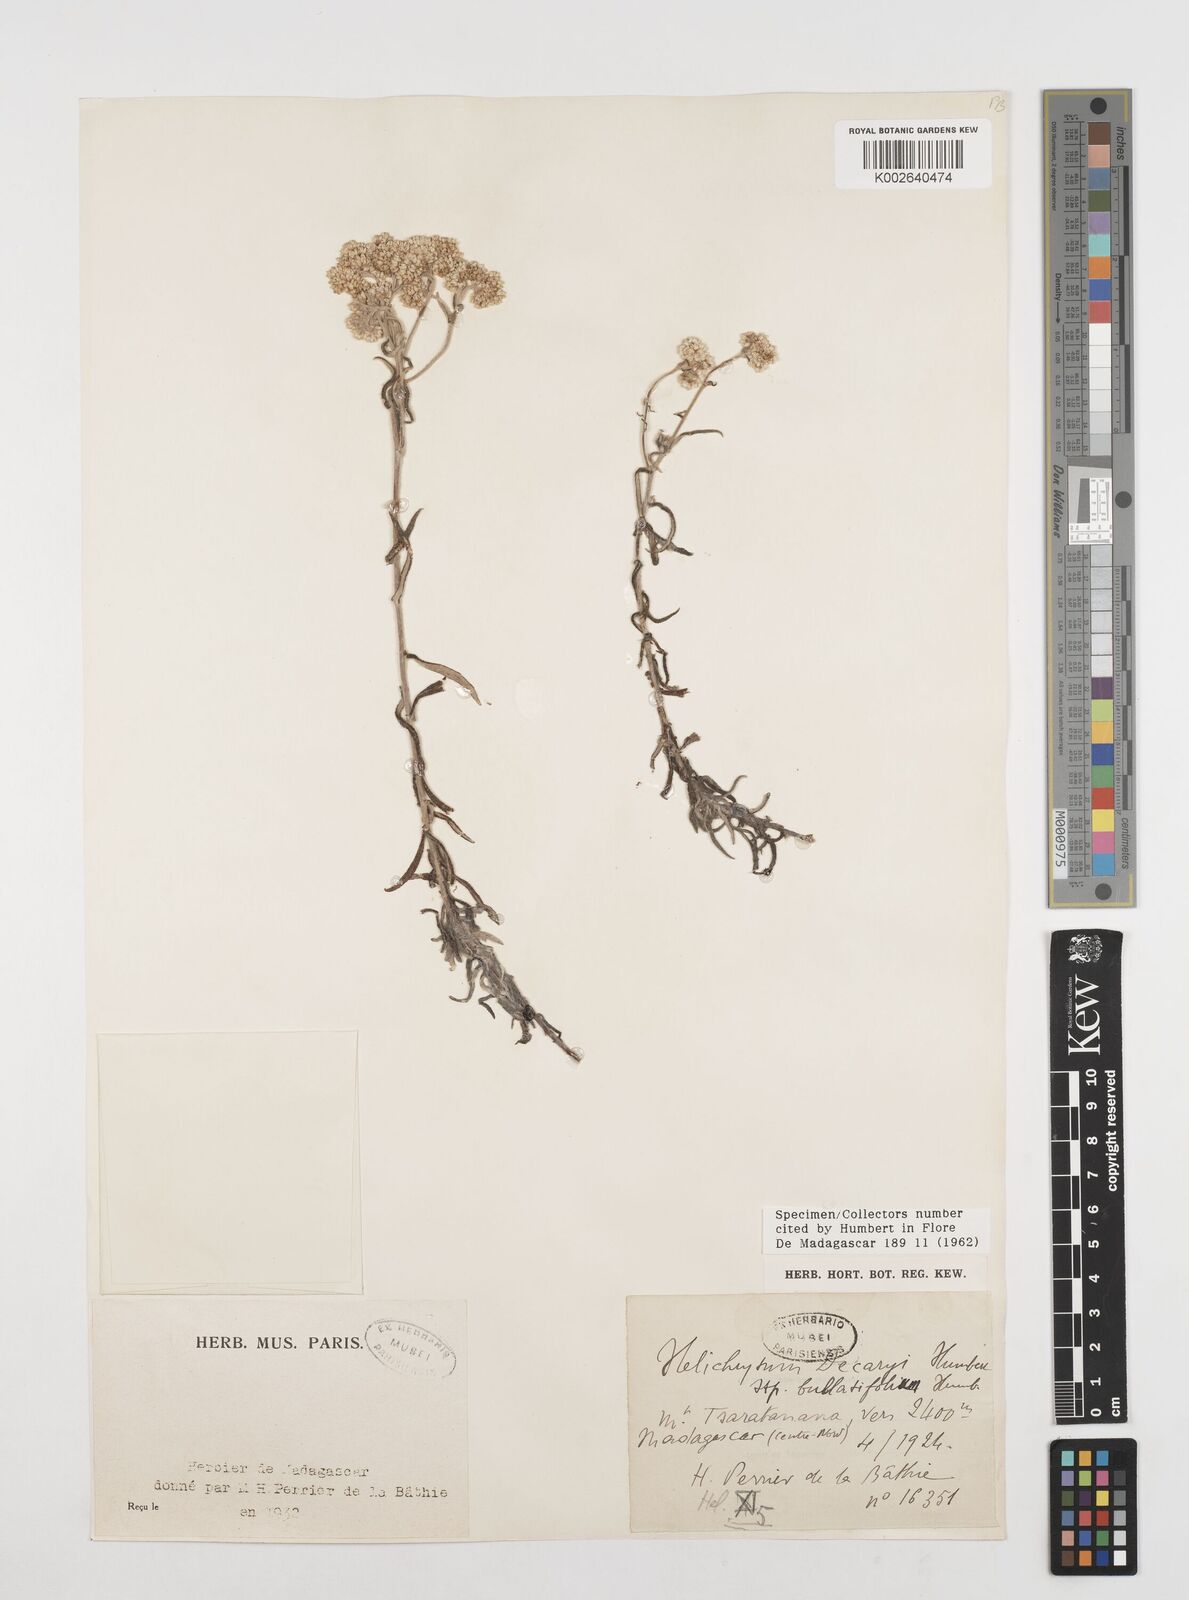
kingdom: Plantae
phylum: Tracheophyta
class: Magnoliopsida
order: Asterales
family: Asteraceae
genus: Helichrysum
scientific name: Helichrysum decaryi
